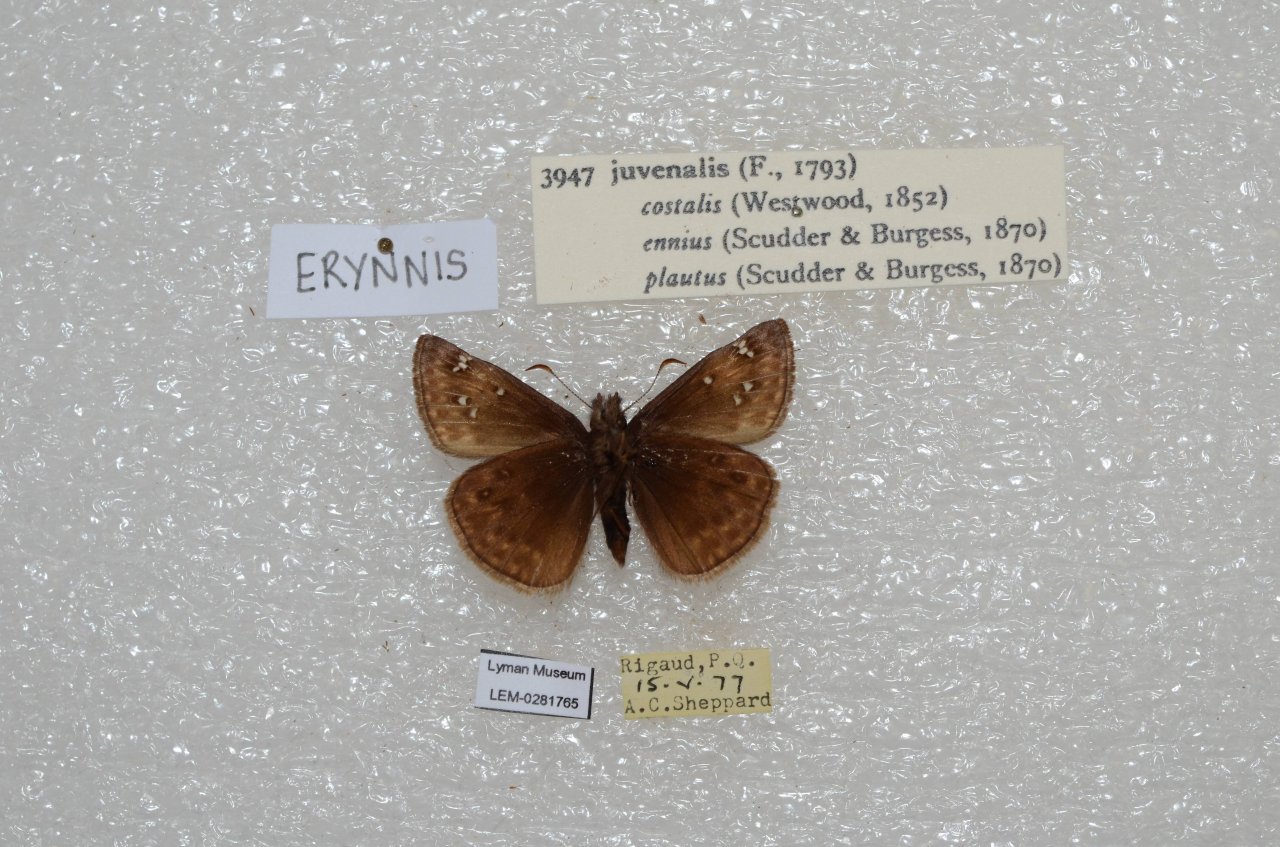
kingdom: Animalia
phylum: Arthropoda
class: Insecta
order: Lepidoptera
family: Hesperiidae
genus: Gesta
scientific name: Gesta
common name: Juvenal's Duskywing
